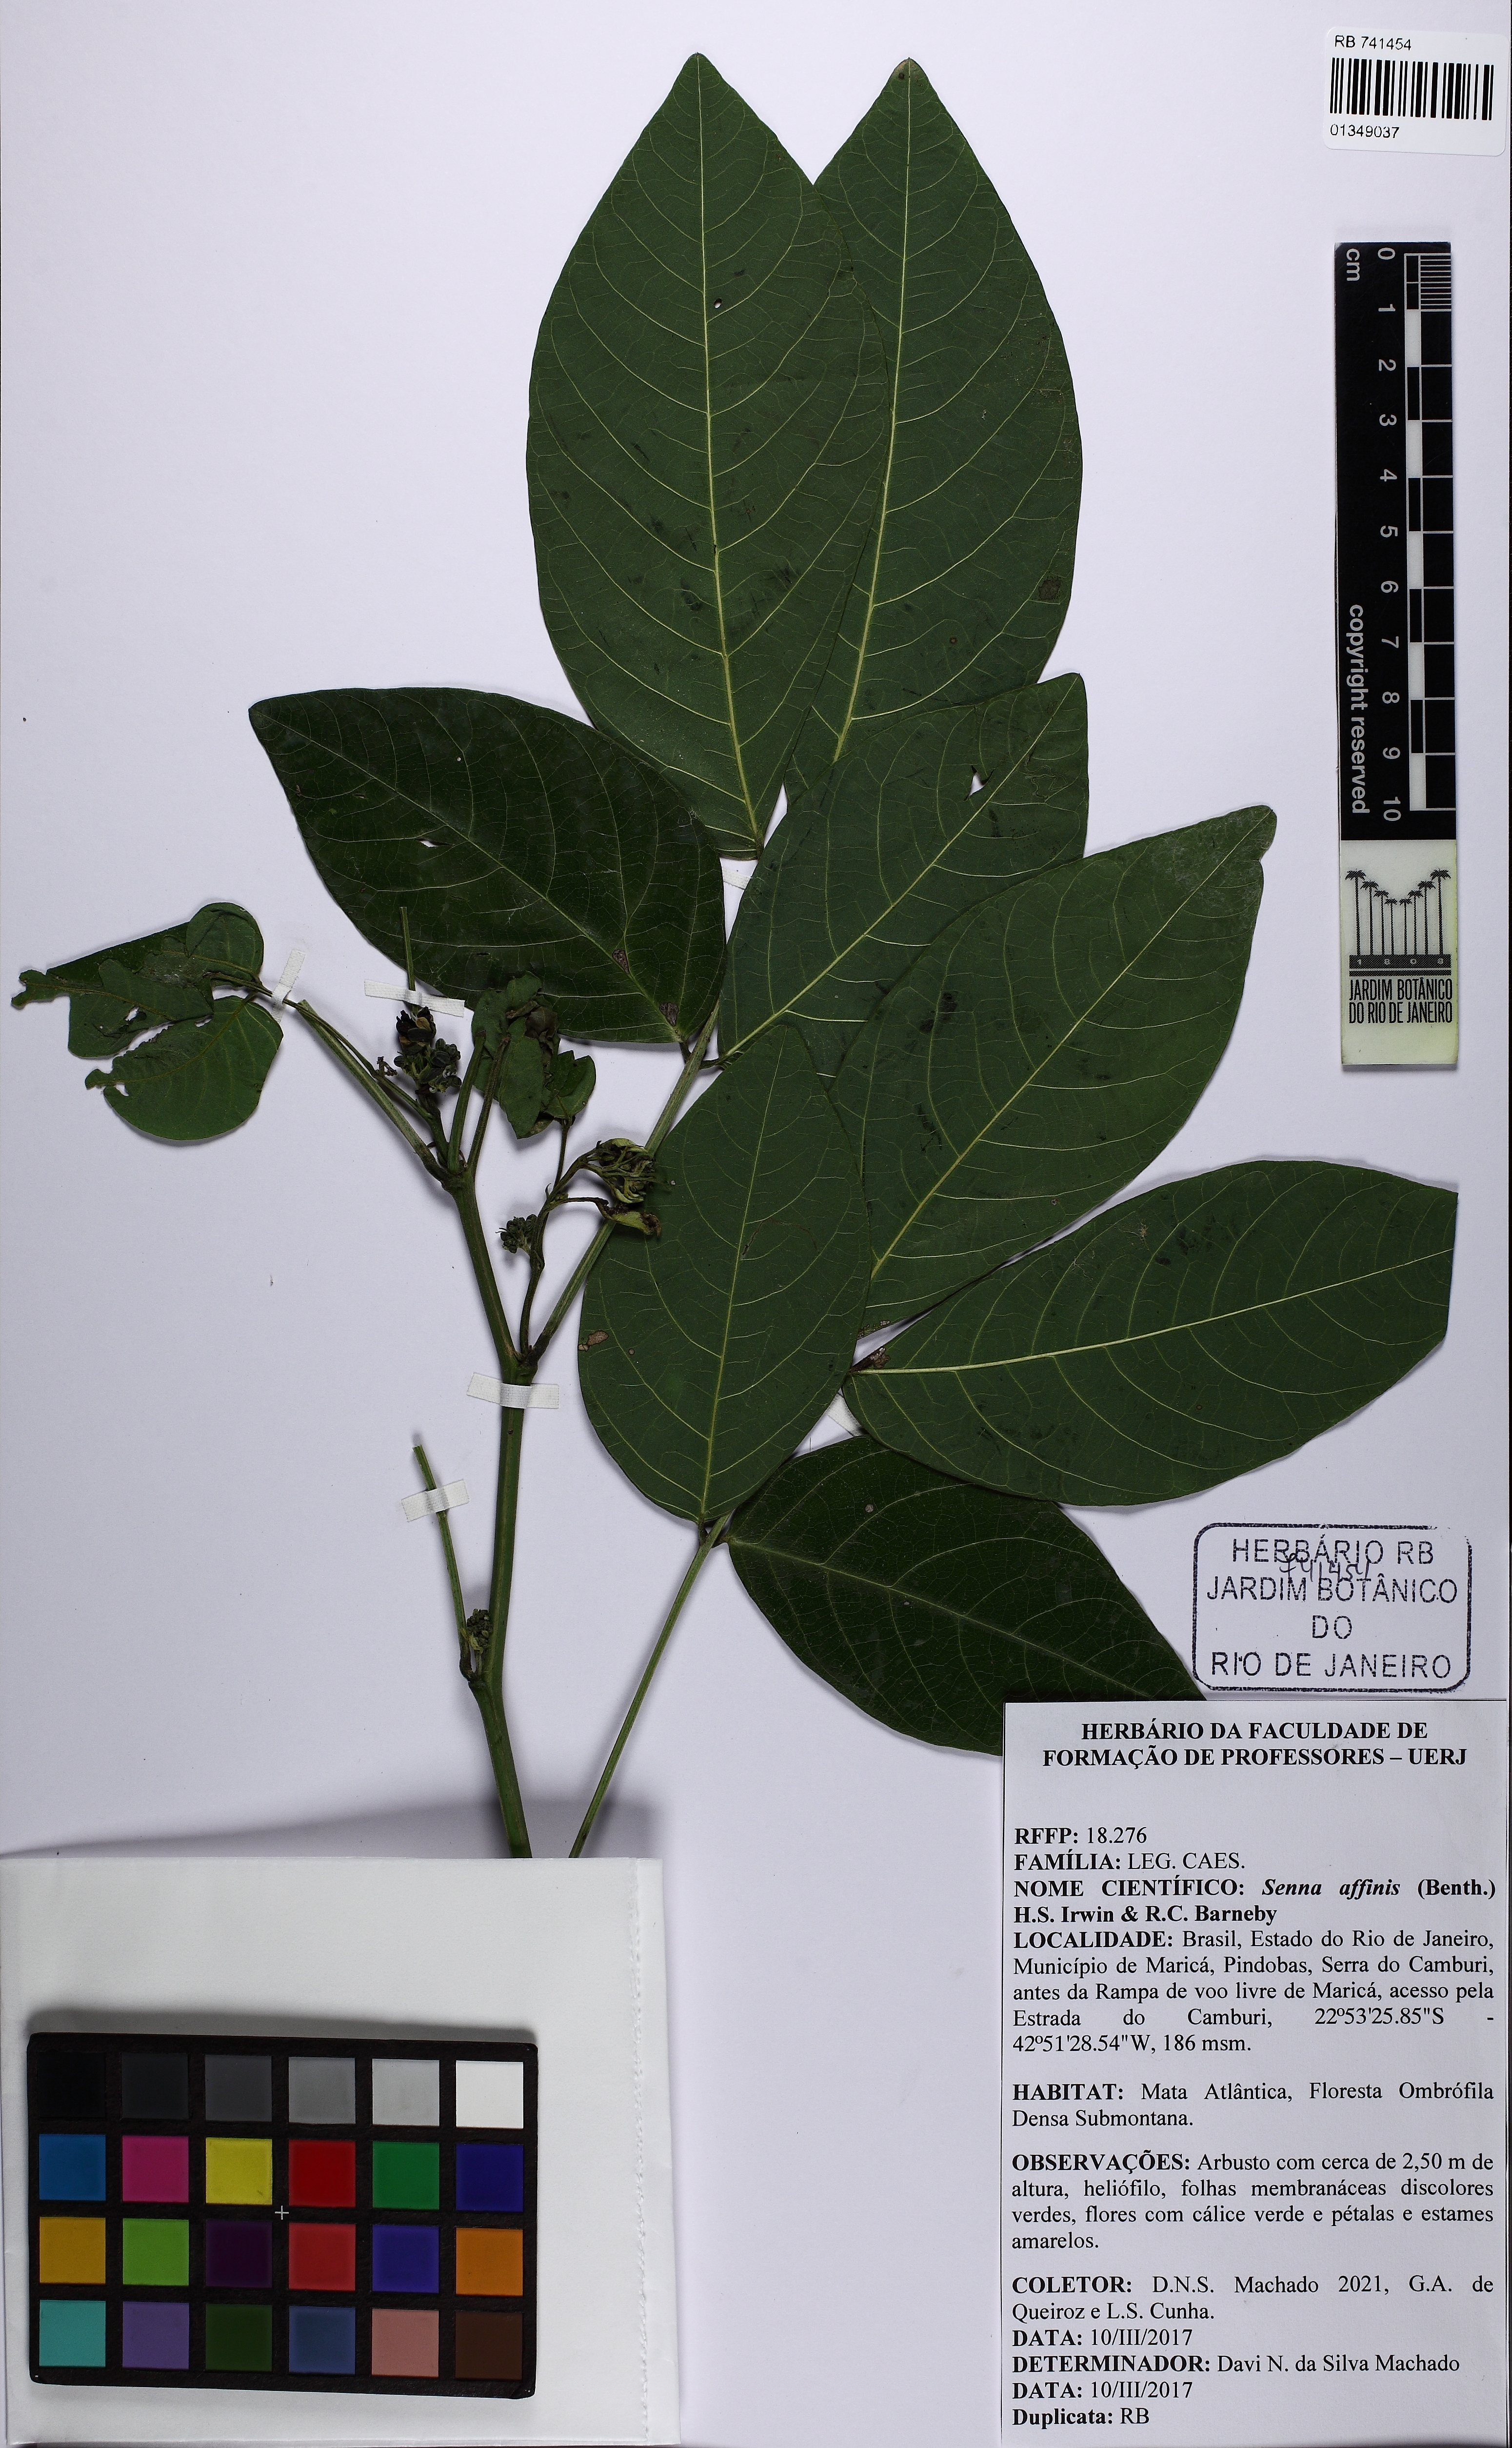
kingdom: Plantae
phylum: Tracheophyta
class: Magnoliopsida
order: Fabales
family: Fabaceae
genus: Senna
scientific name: Senna affinis
